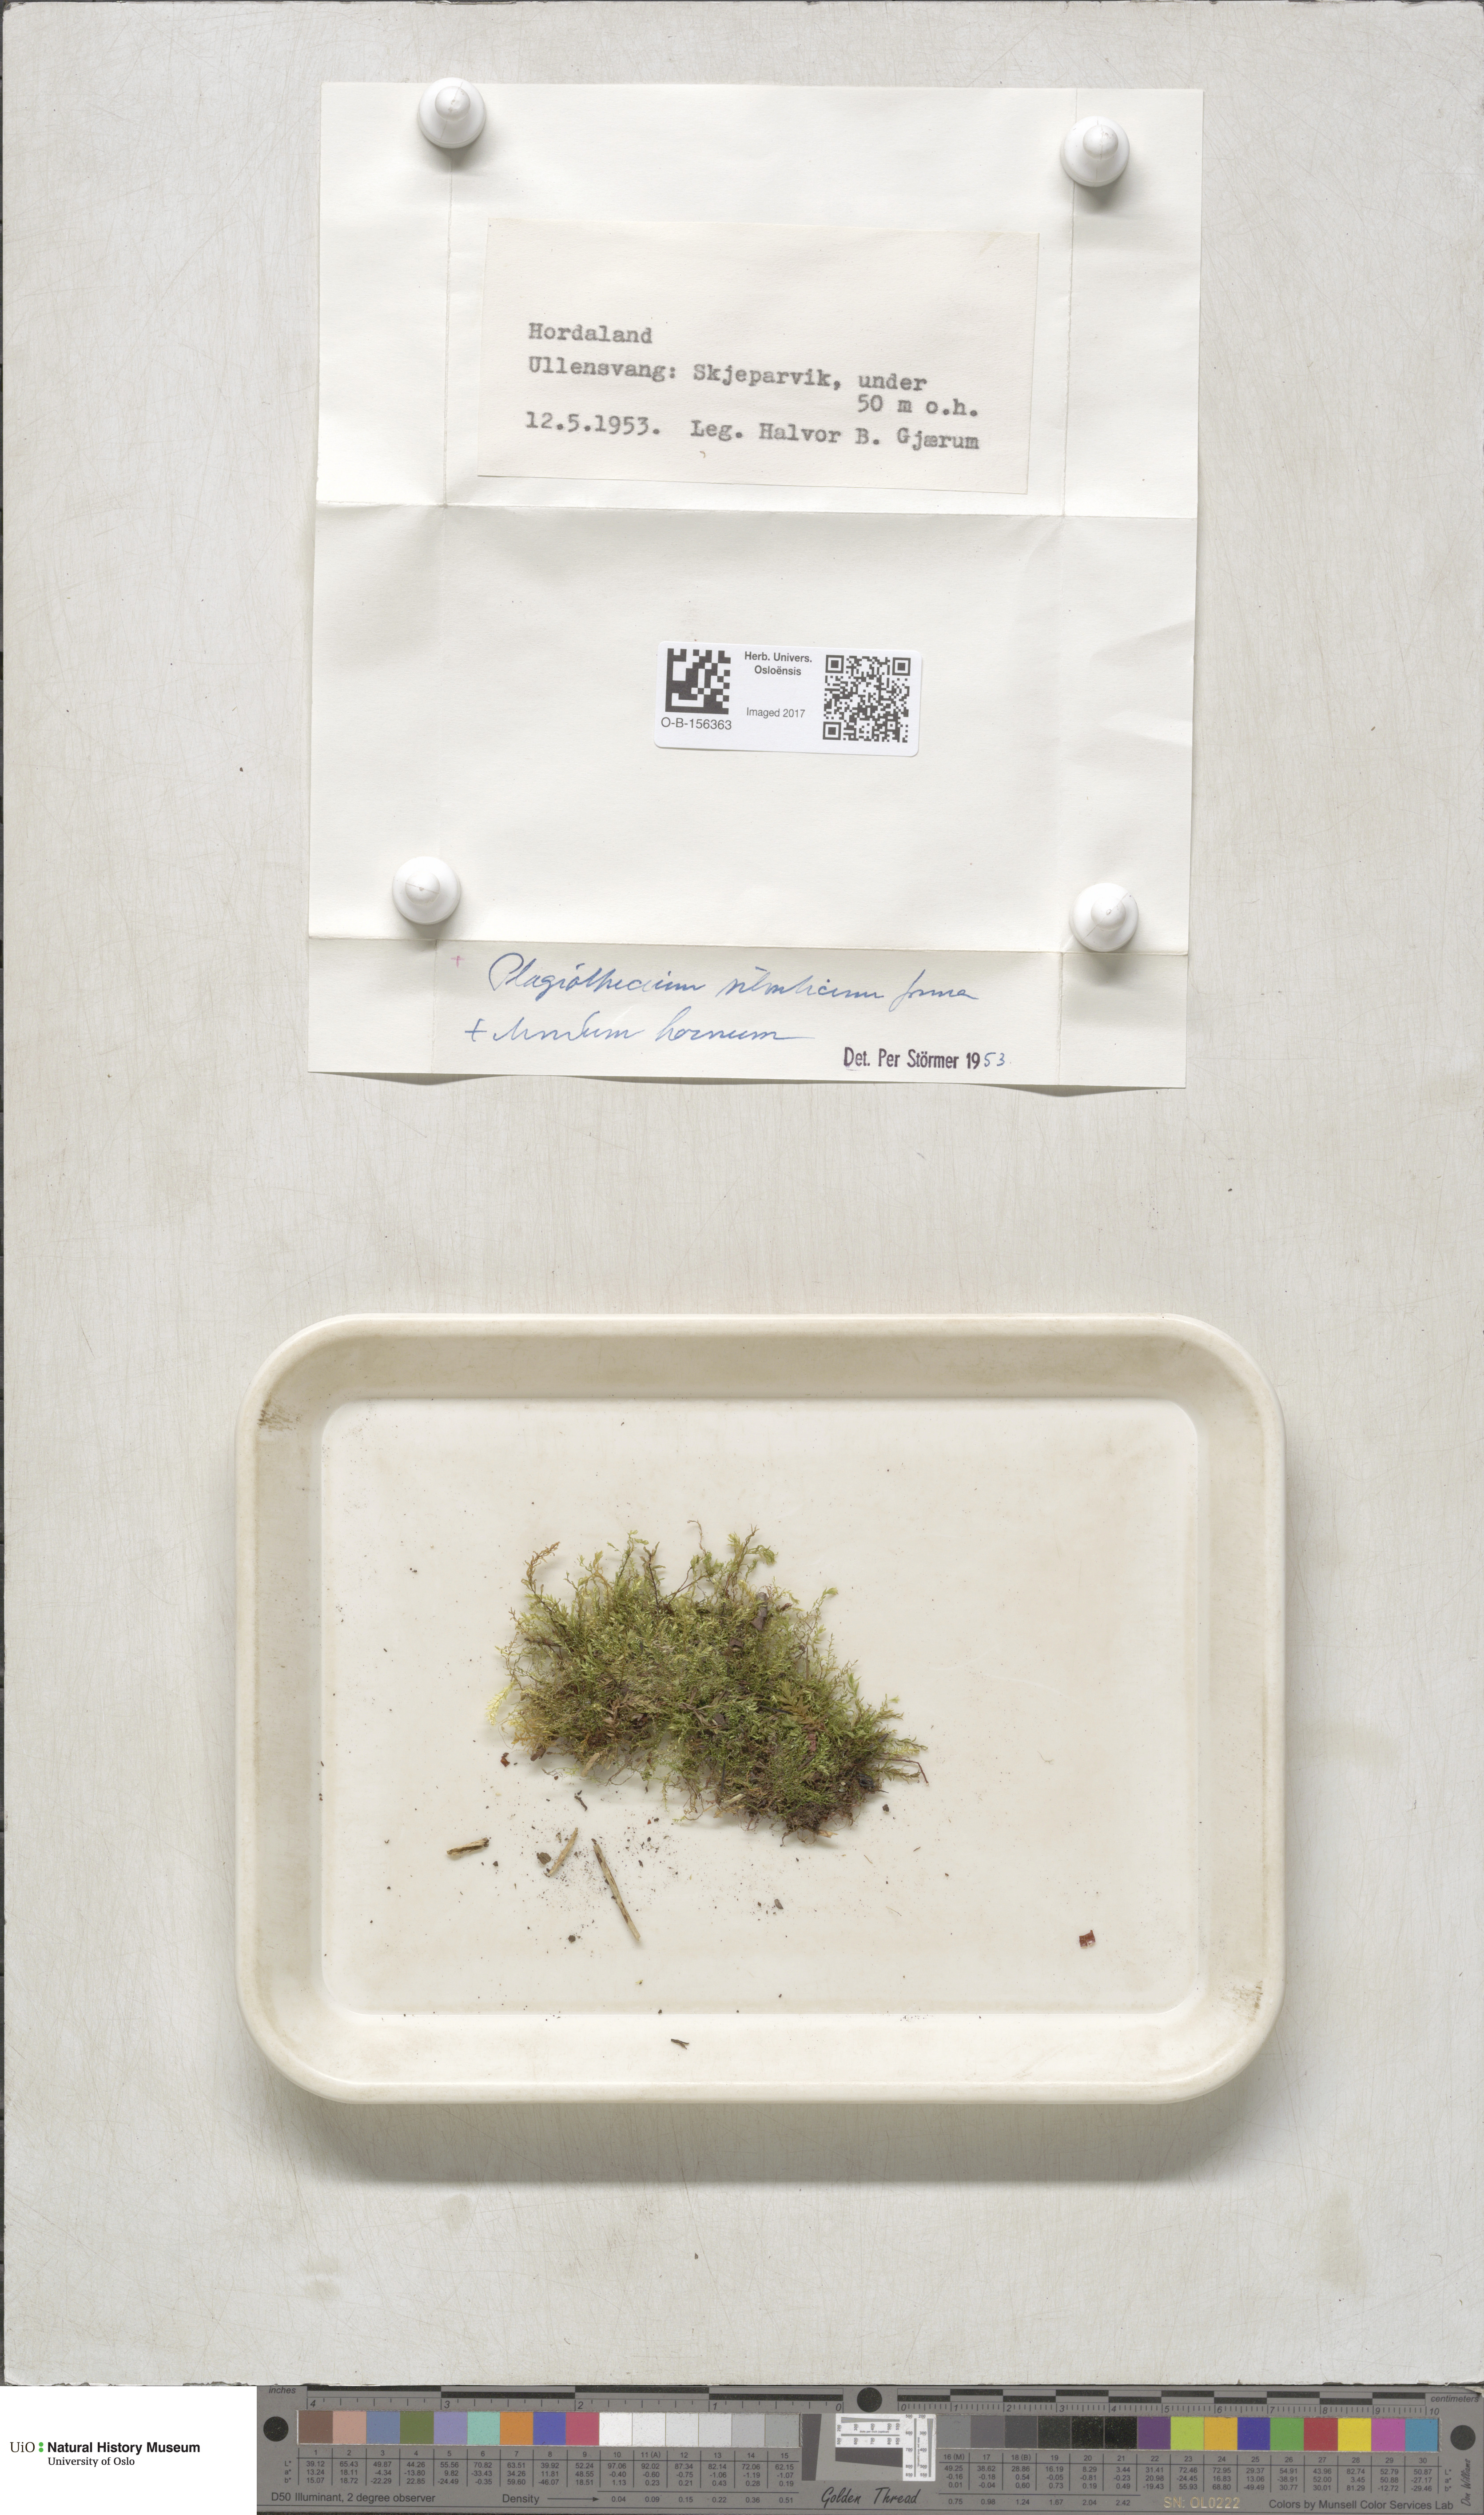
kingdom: Plantae
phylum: Bryophyta
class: Bryopsida
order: Hypnales
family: Plagiotheciaceae
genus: Plagiothecium
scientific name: Plagiothecium nemorale
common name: Woodsy silk-moss
